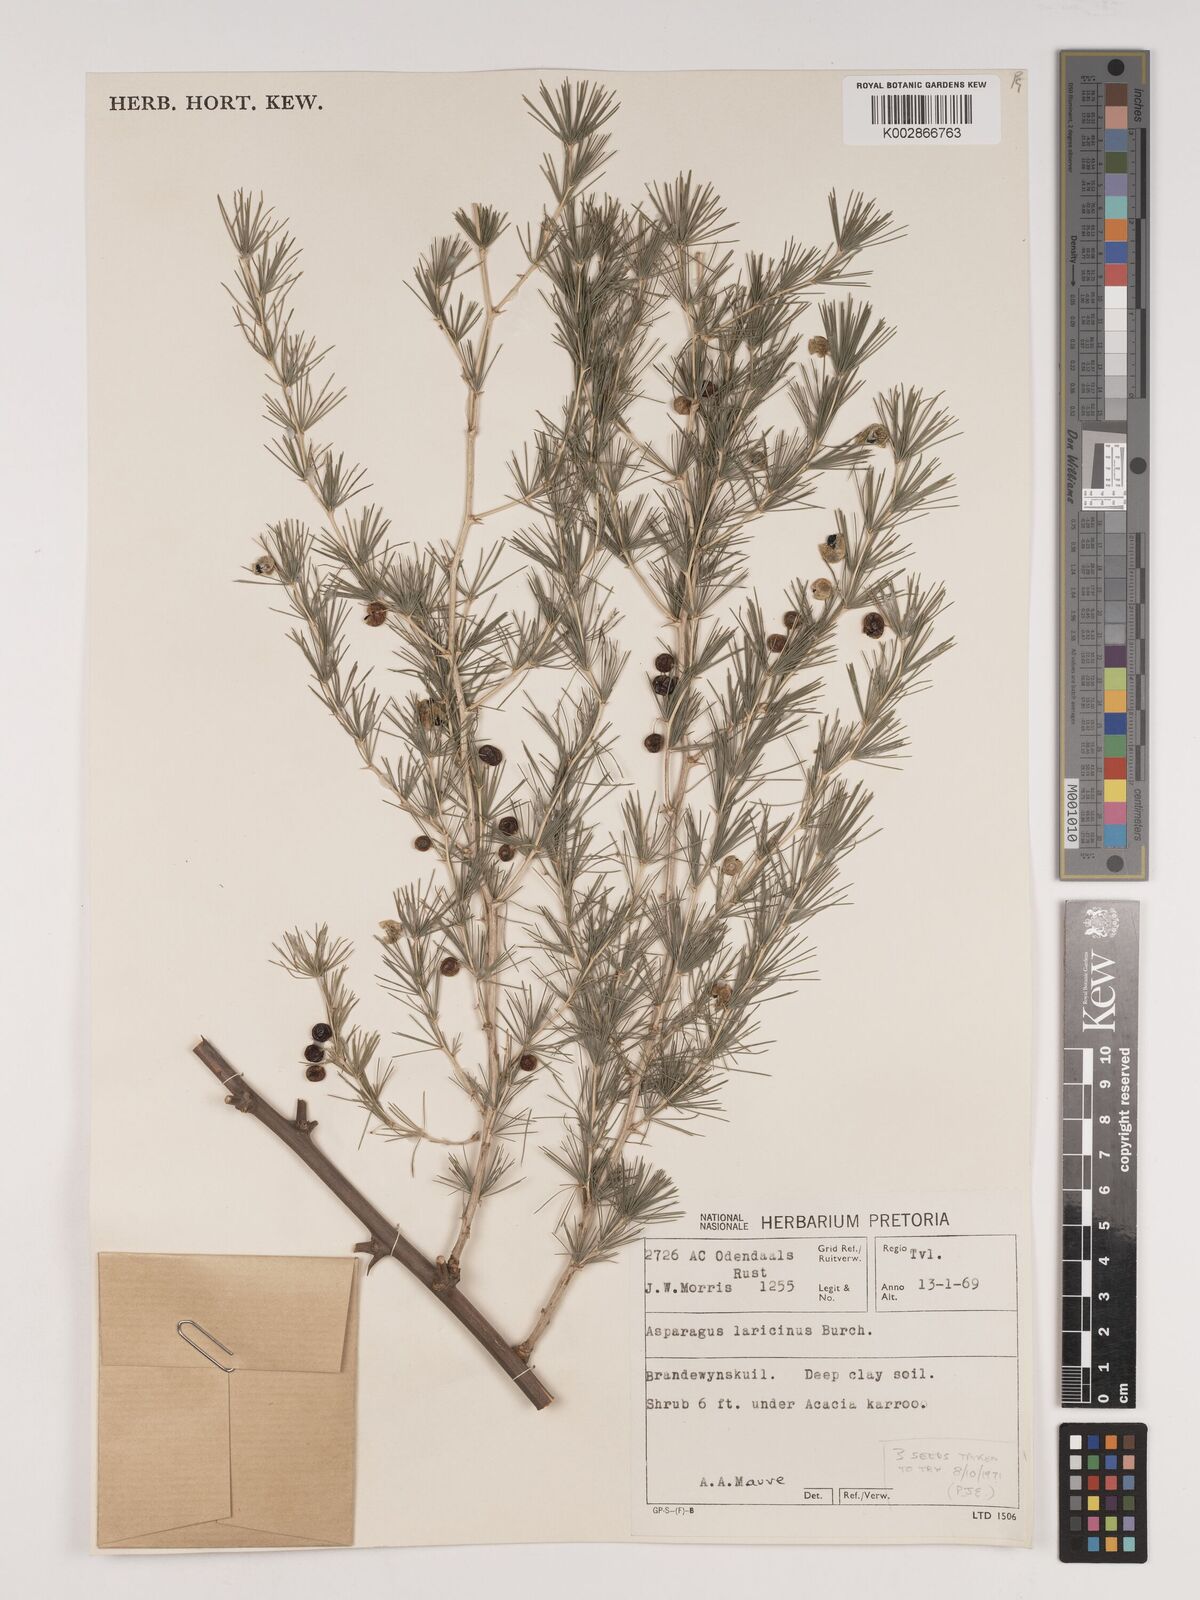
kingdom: Plantae
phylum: Tracheophyta
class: Liliopsida
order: Asparagales
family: Asparagaceae
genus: Asparagus
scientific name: Asparagus laricinus
